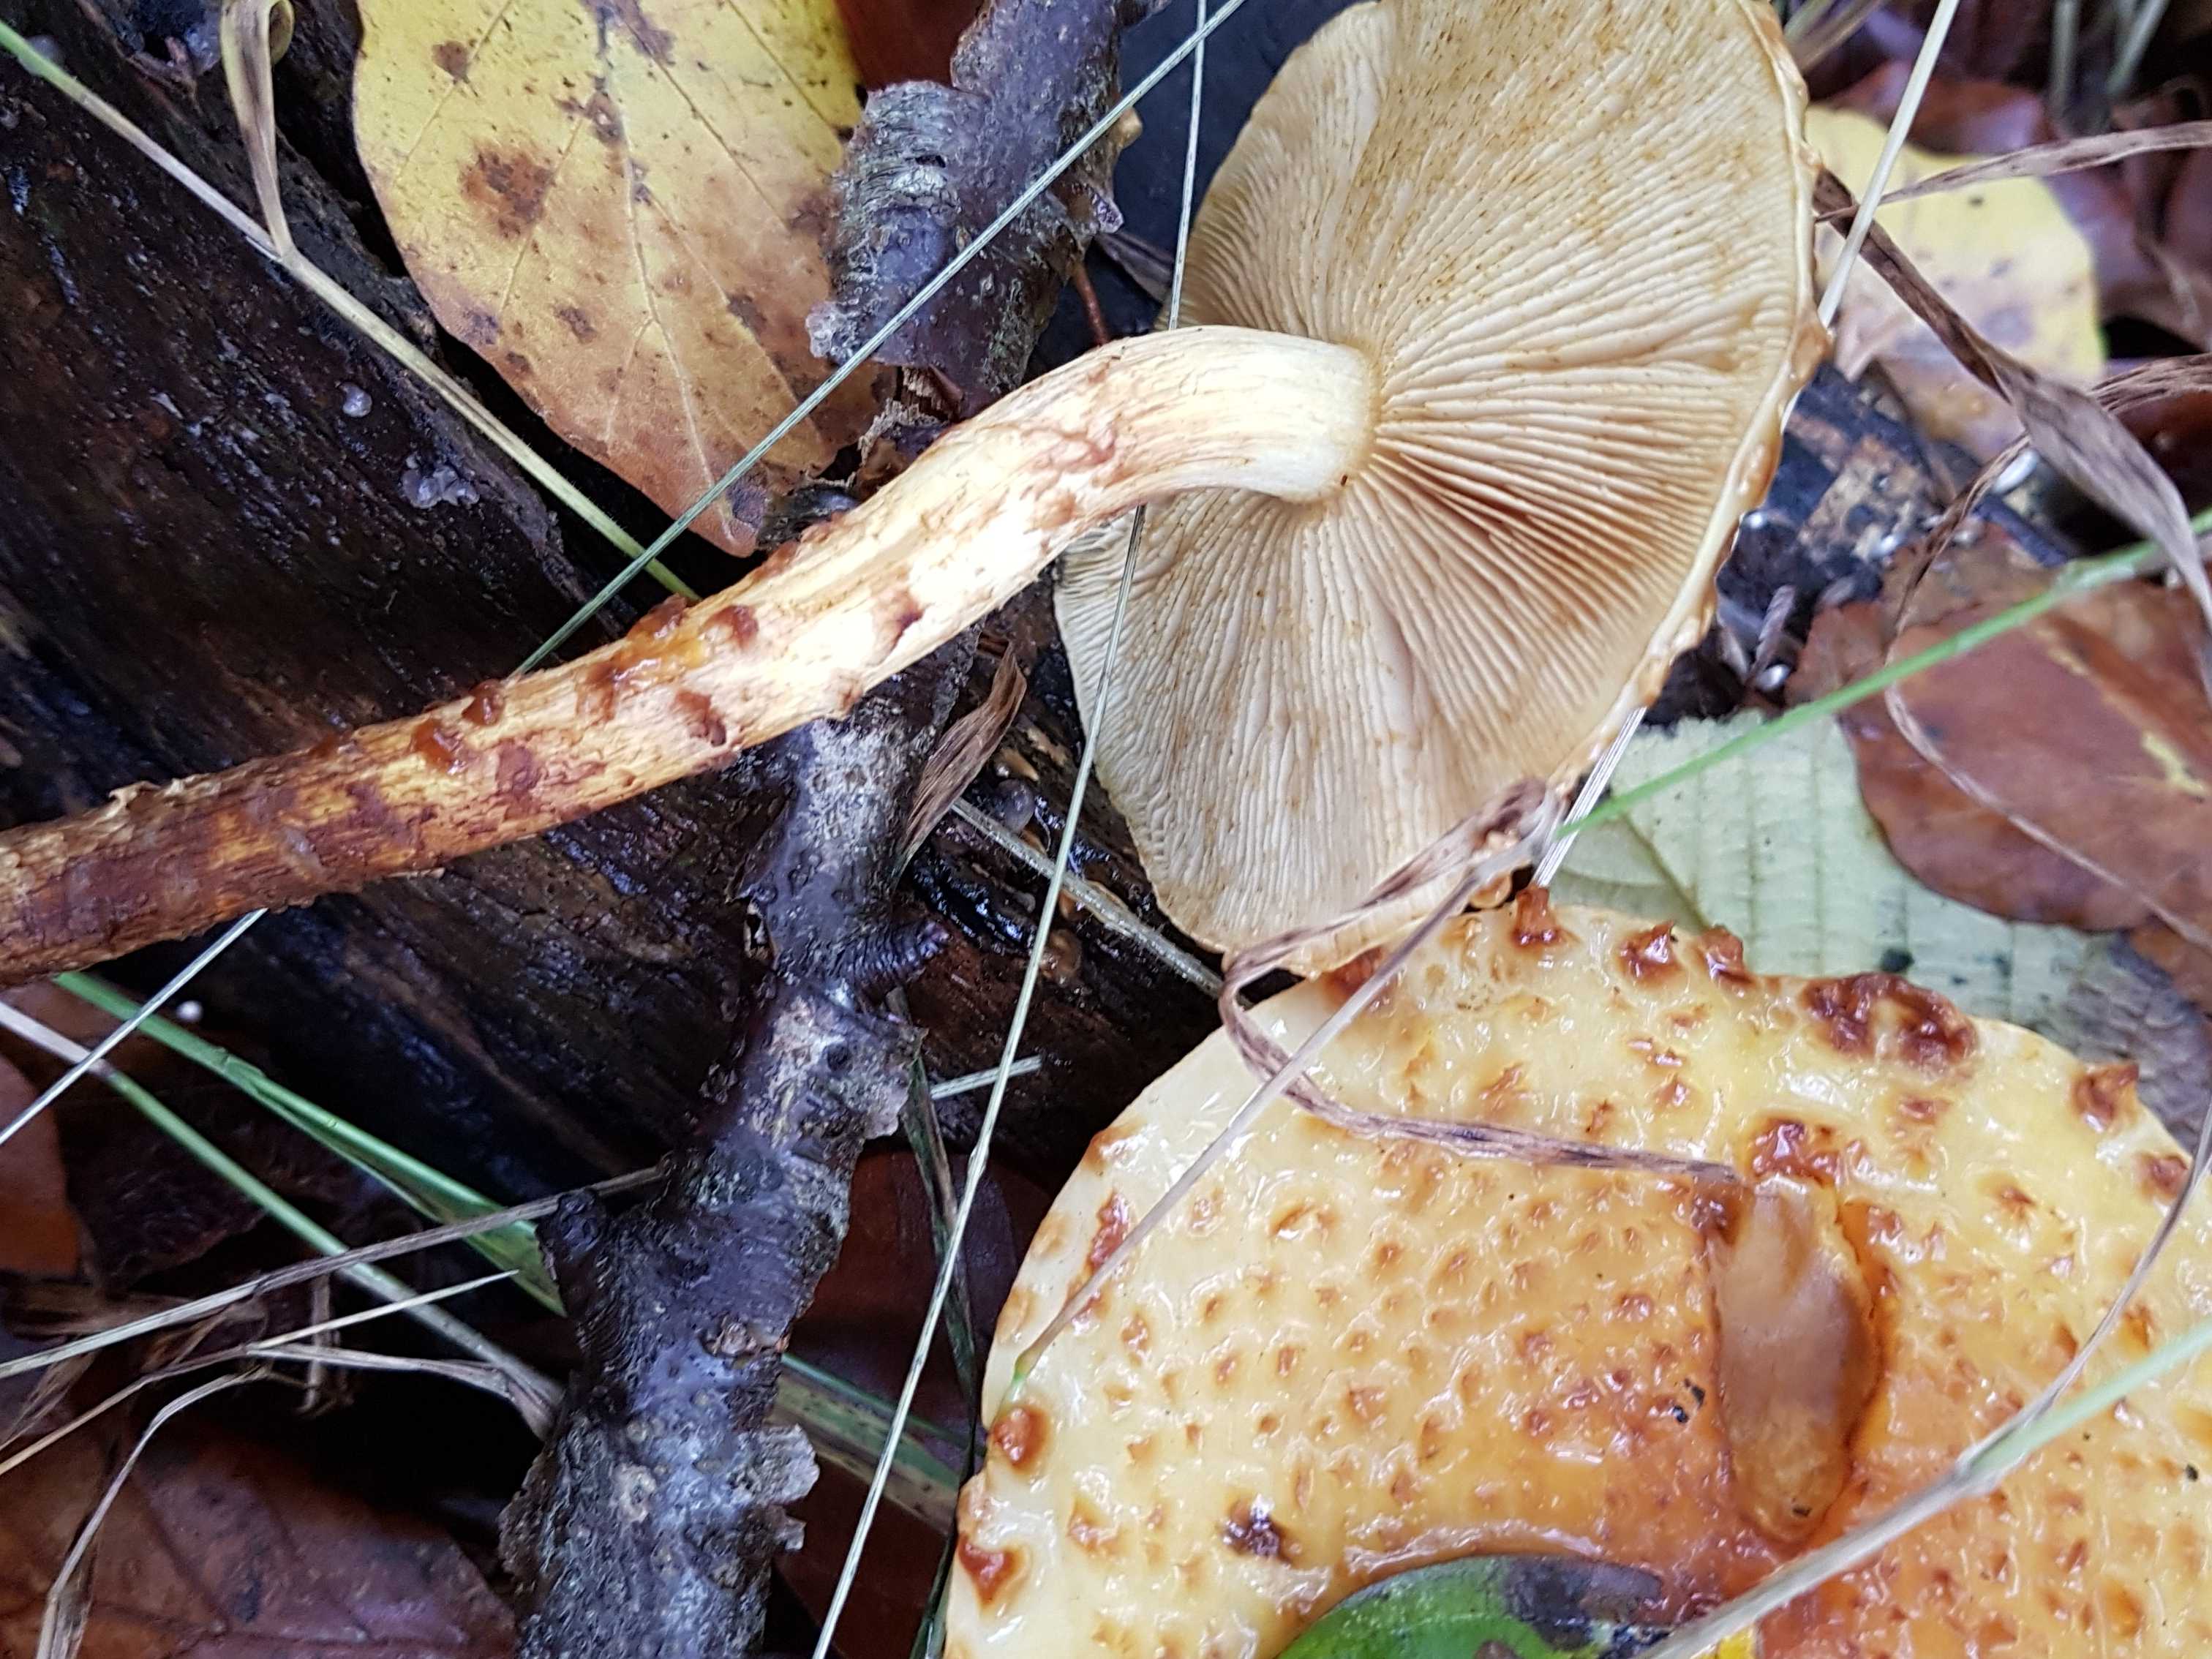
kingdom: Fungi
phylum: Basidiomycota
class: Agaricomycetes
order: Agaricales
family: Strophariaceae
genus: Pholiota
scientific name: Pholiota
